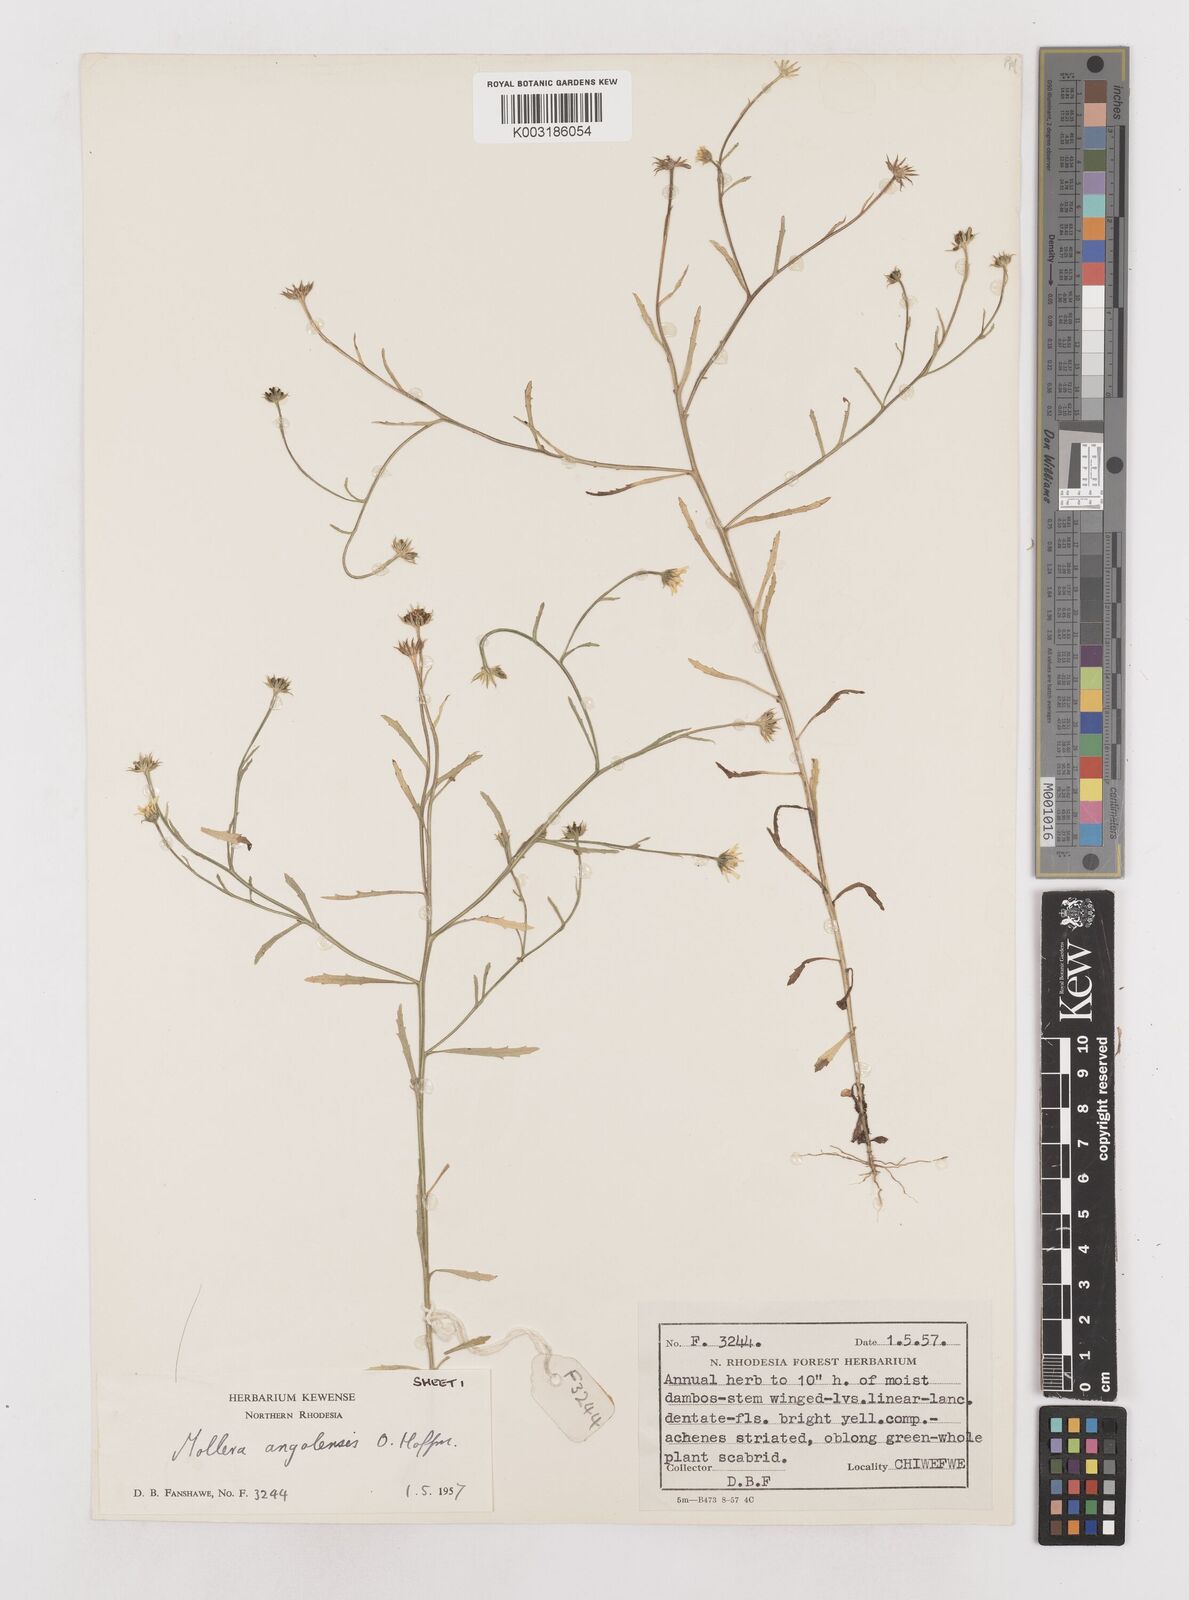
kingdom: Plantae
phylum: Tracheophyta
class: Magnoliopsida
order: Asterales
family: Asteraceae
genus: Calostephane
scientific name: Calostephane angolensis
